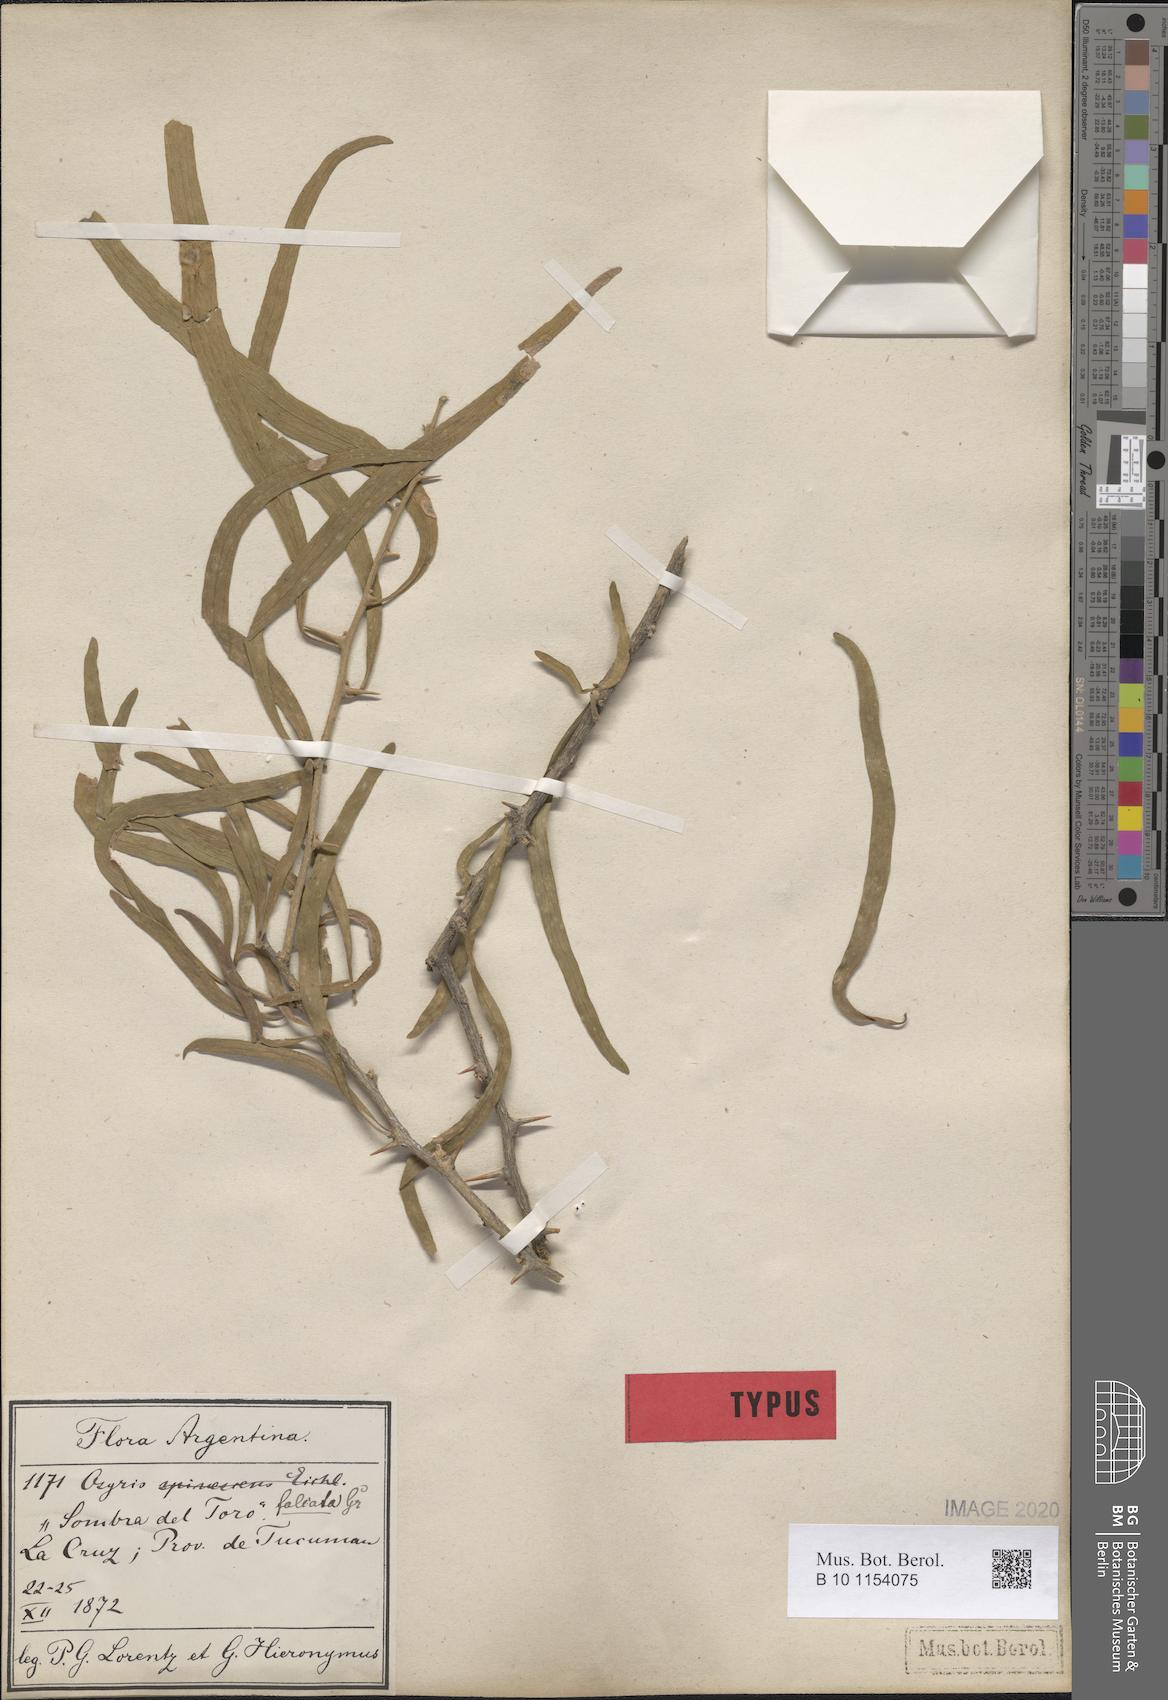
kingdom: Plantae
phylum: Tracheophyta
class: Magnoliopsida
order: Santalales
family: Cervantesiaceae
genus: Acanthosyris
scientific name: Acanthosyris falcata
